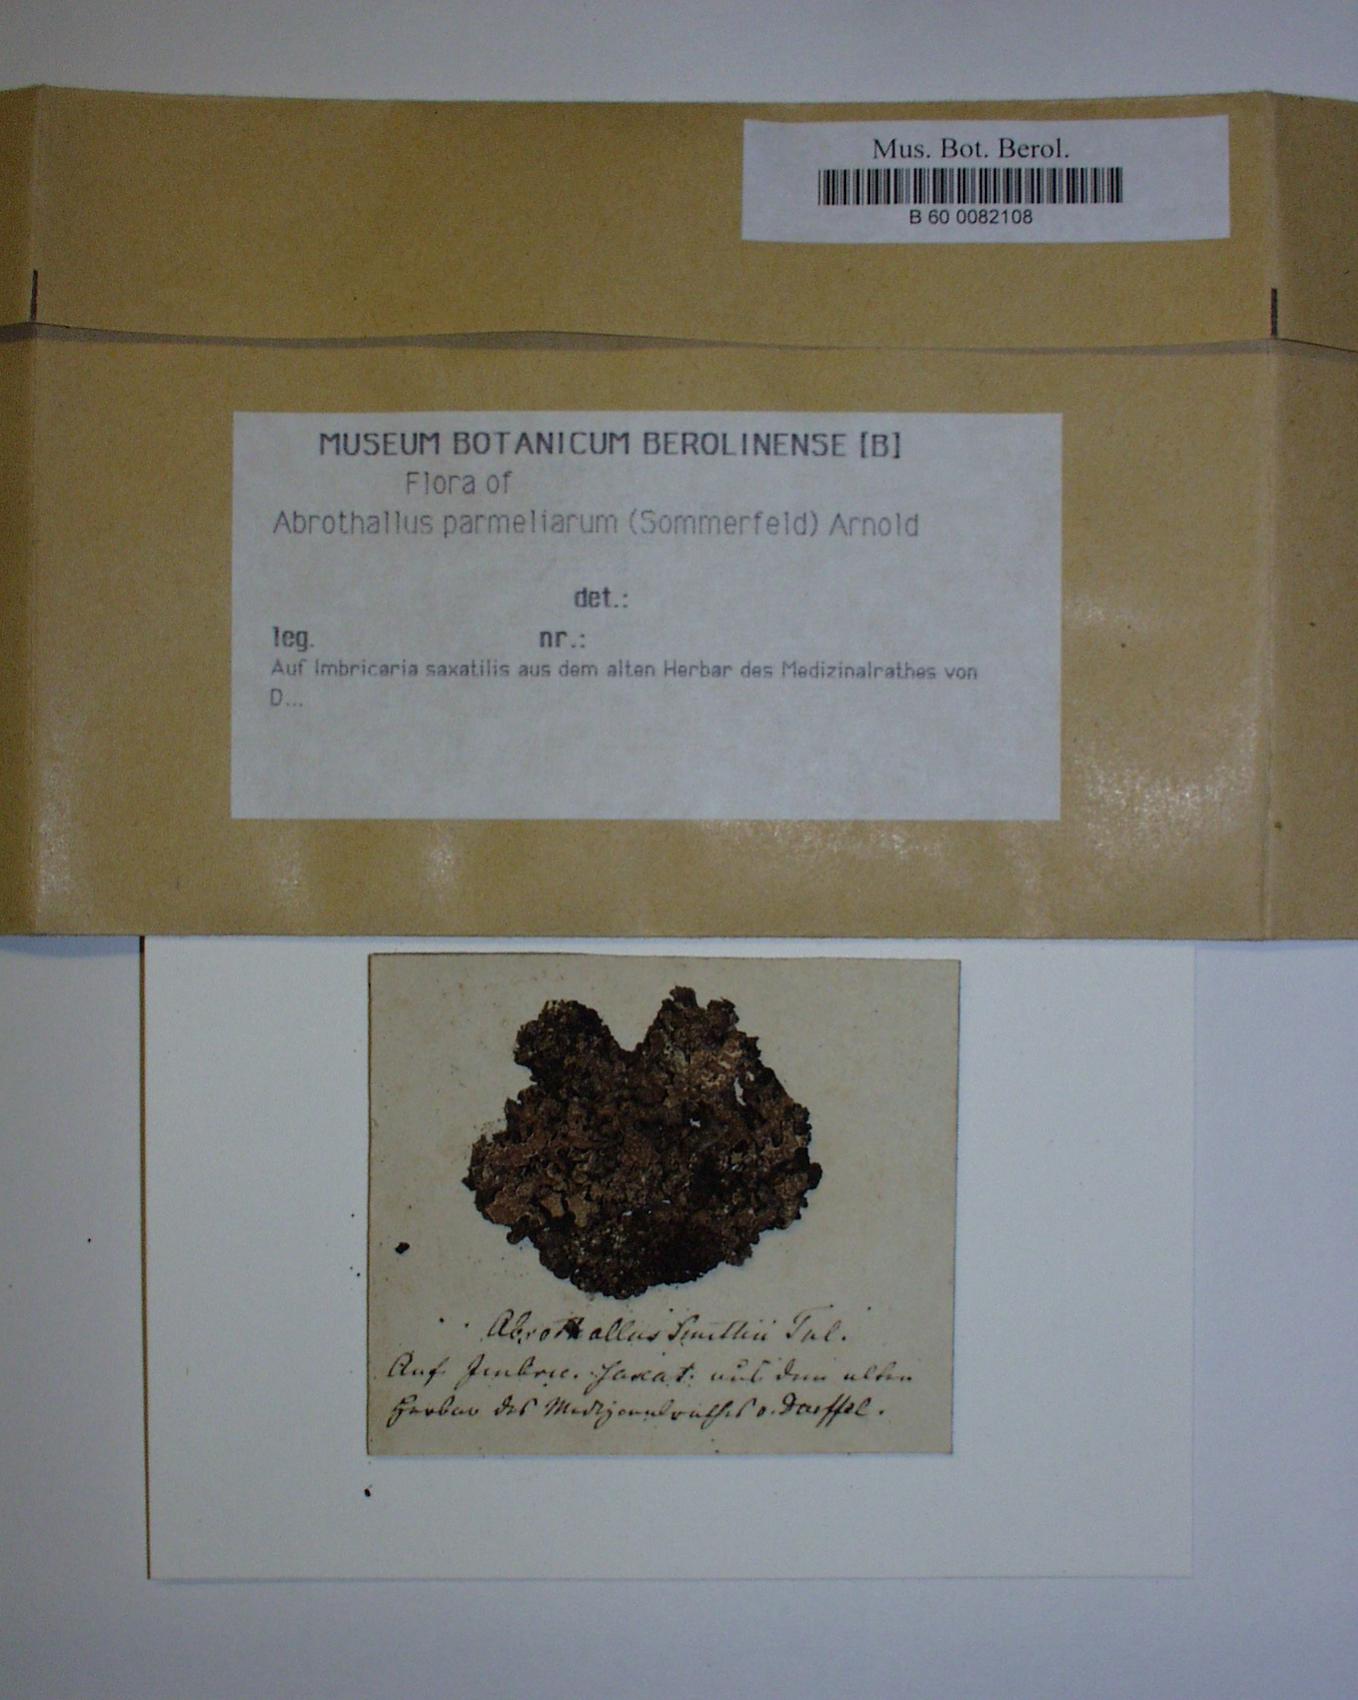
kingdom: Fungi
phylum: Ascomycota
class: Dothideomycetes
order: Abrothallales
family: Abrothallaceae
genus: Abrothallus
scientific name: Abrothallus parmeliarum
